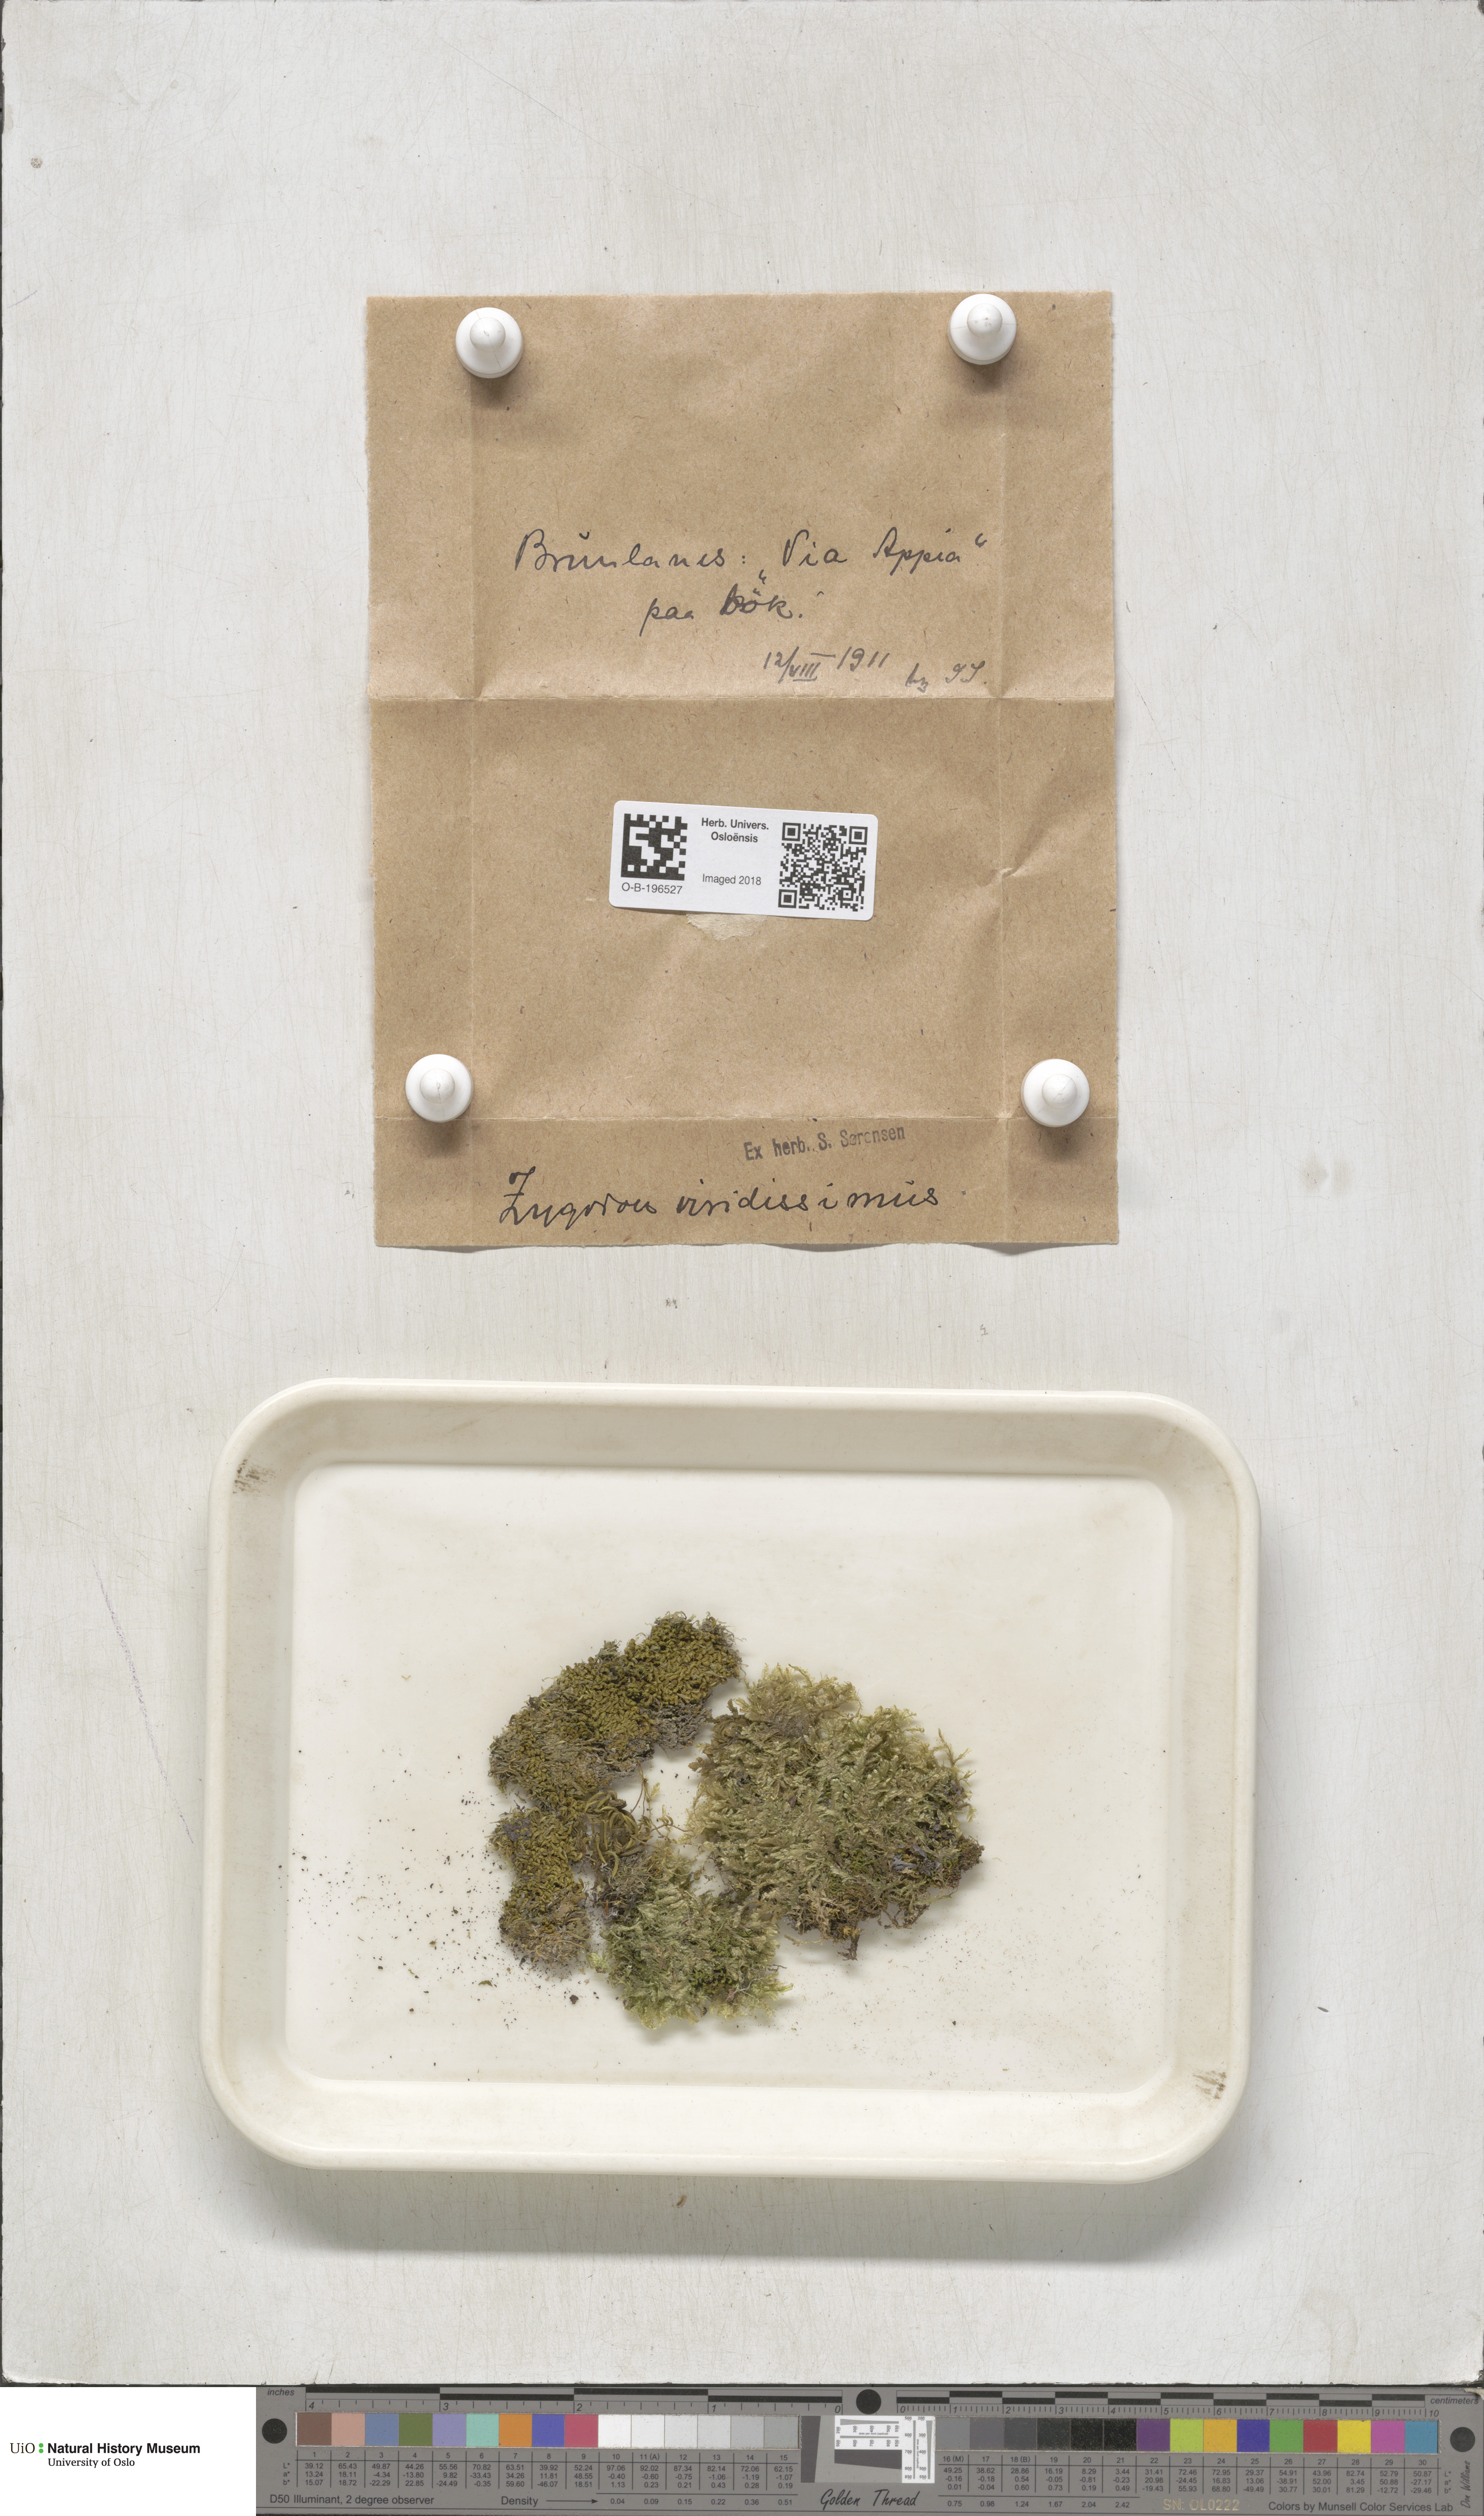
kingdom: Plantae
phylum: Bryophyta
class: Bryopsida
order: Orthotrichales
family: Orthotrichaceae
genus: Zygodon
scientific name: Zygodon viridissimus
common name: Green yoke moss
